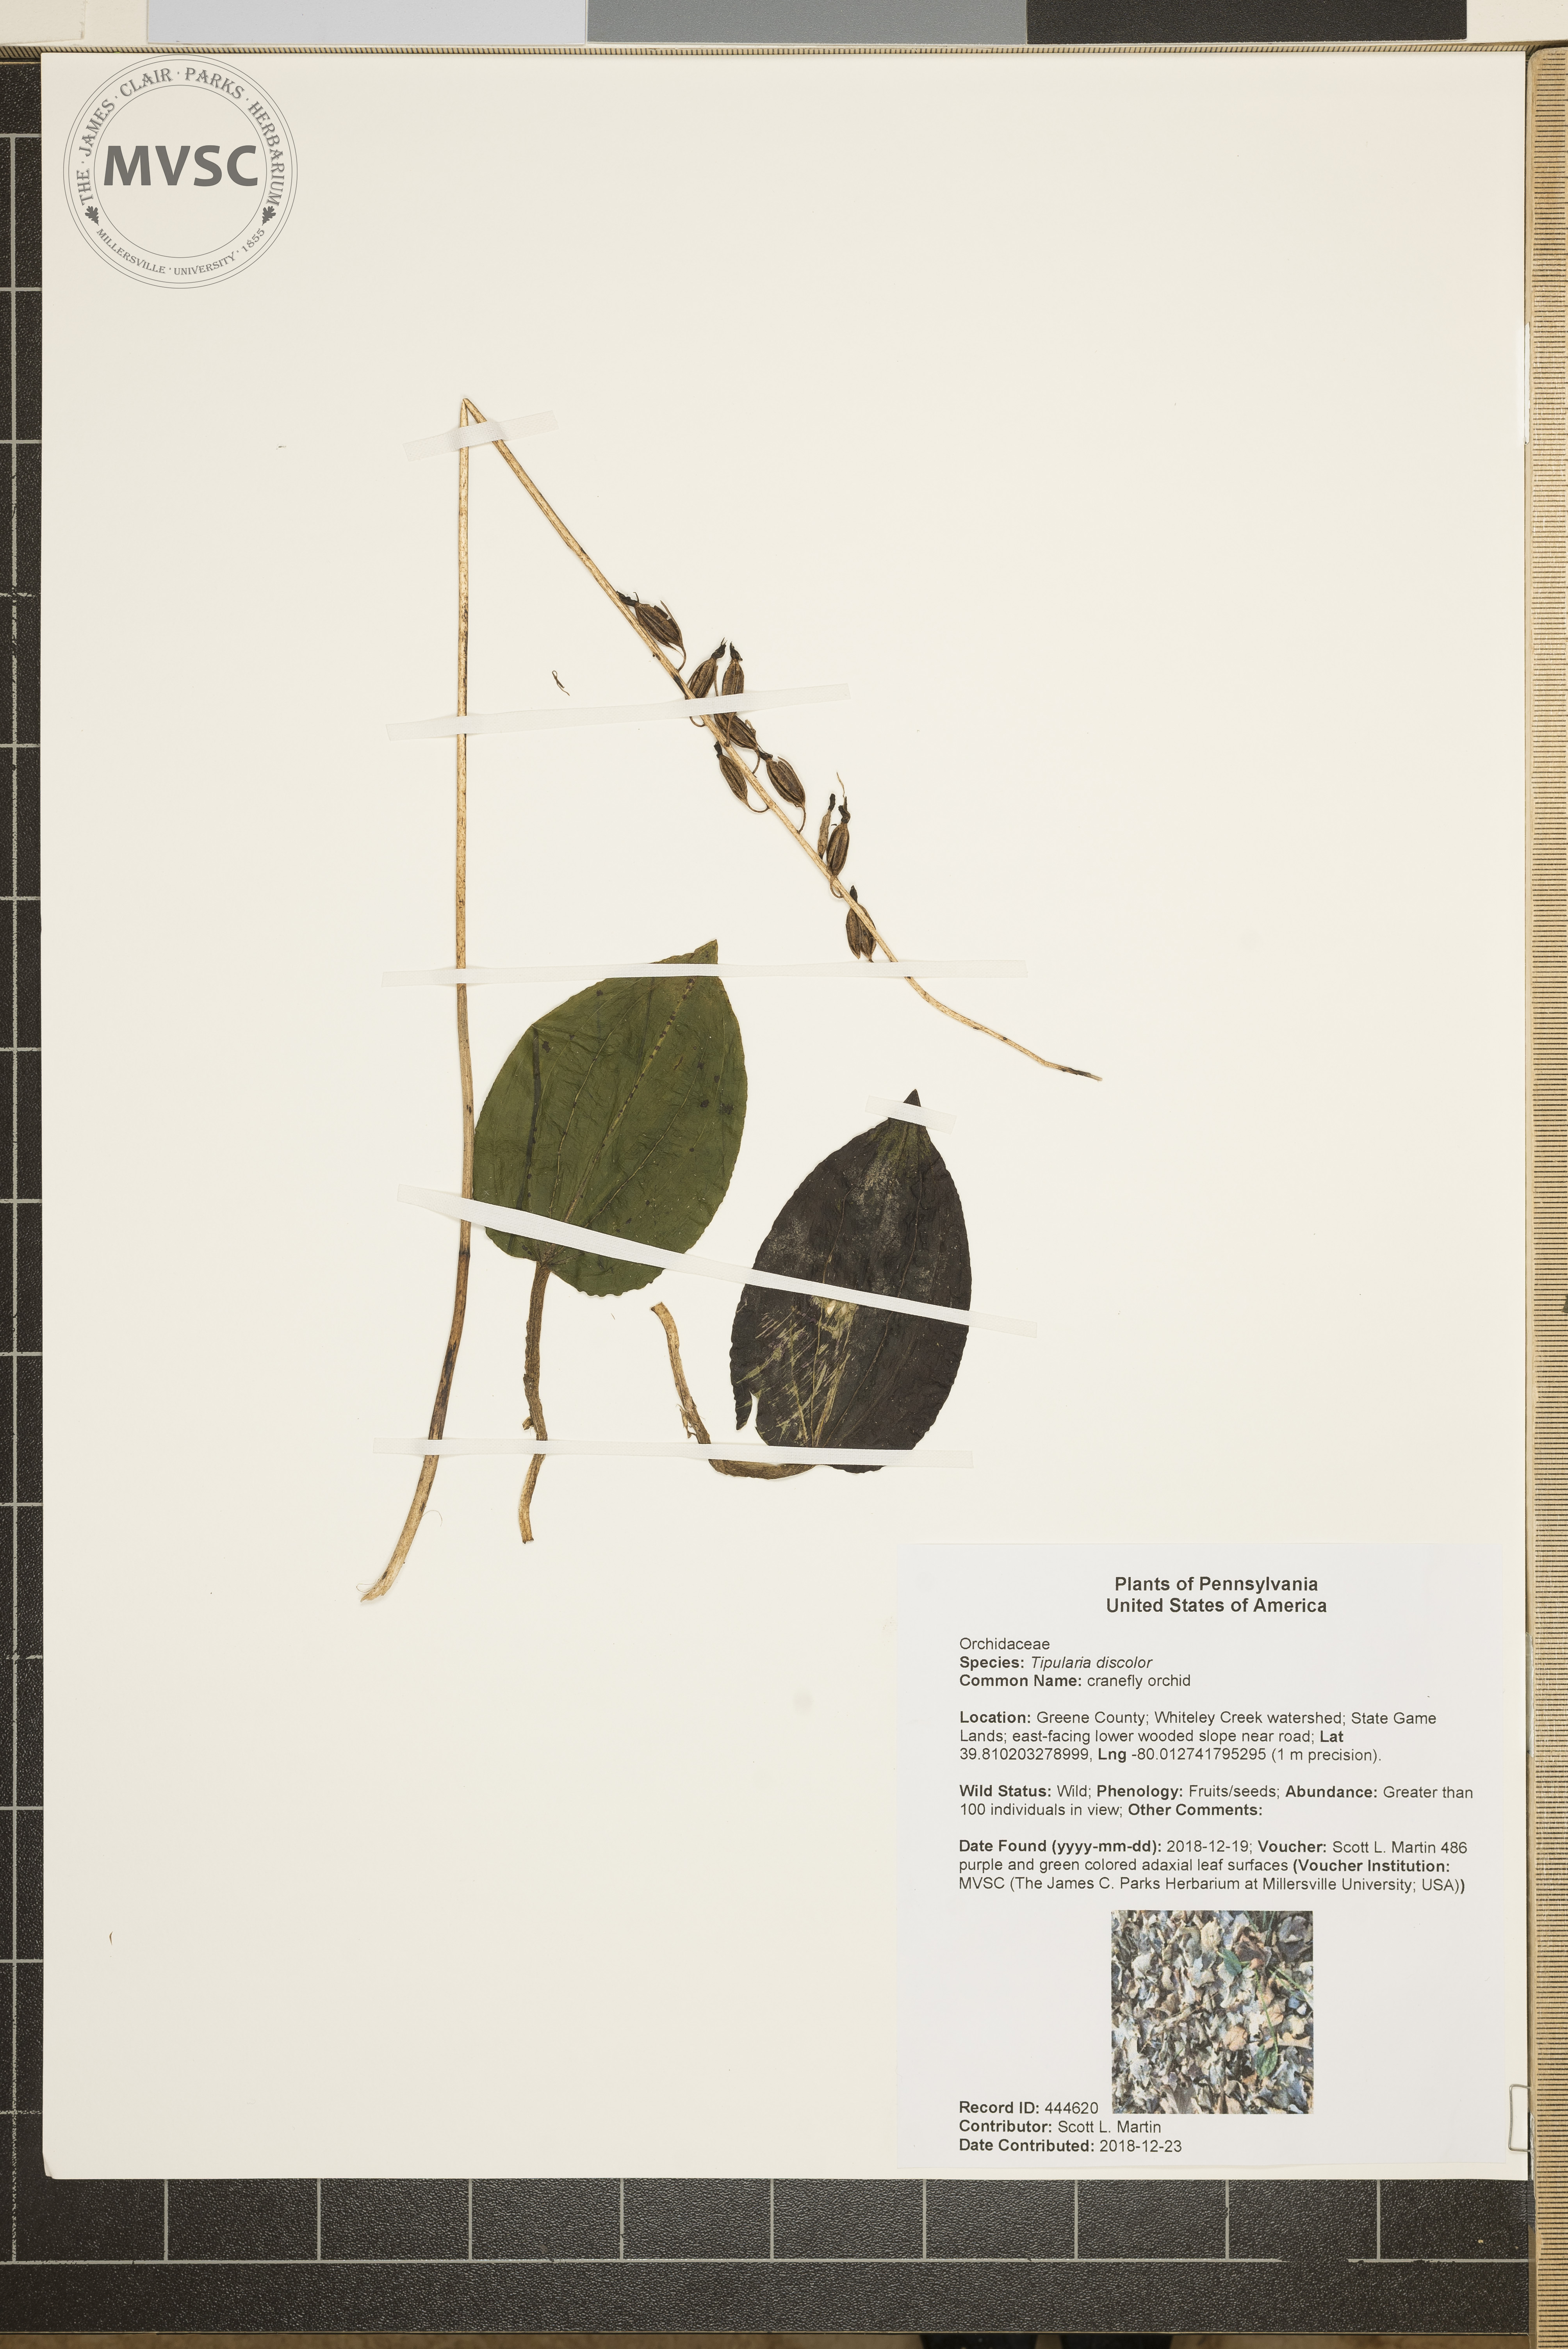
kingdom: Plantae
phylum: Tracheophyta
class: Liliopsida
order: Asparagales
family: Orchidaceae
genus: Tipularia
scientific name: Tipularia discolor
